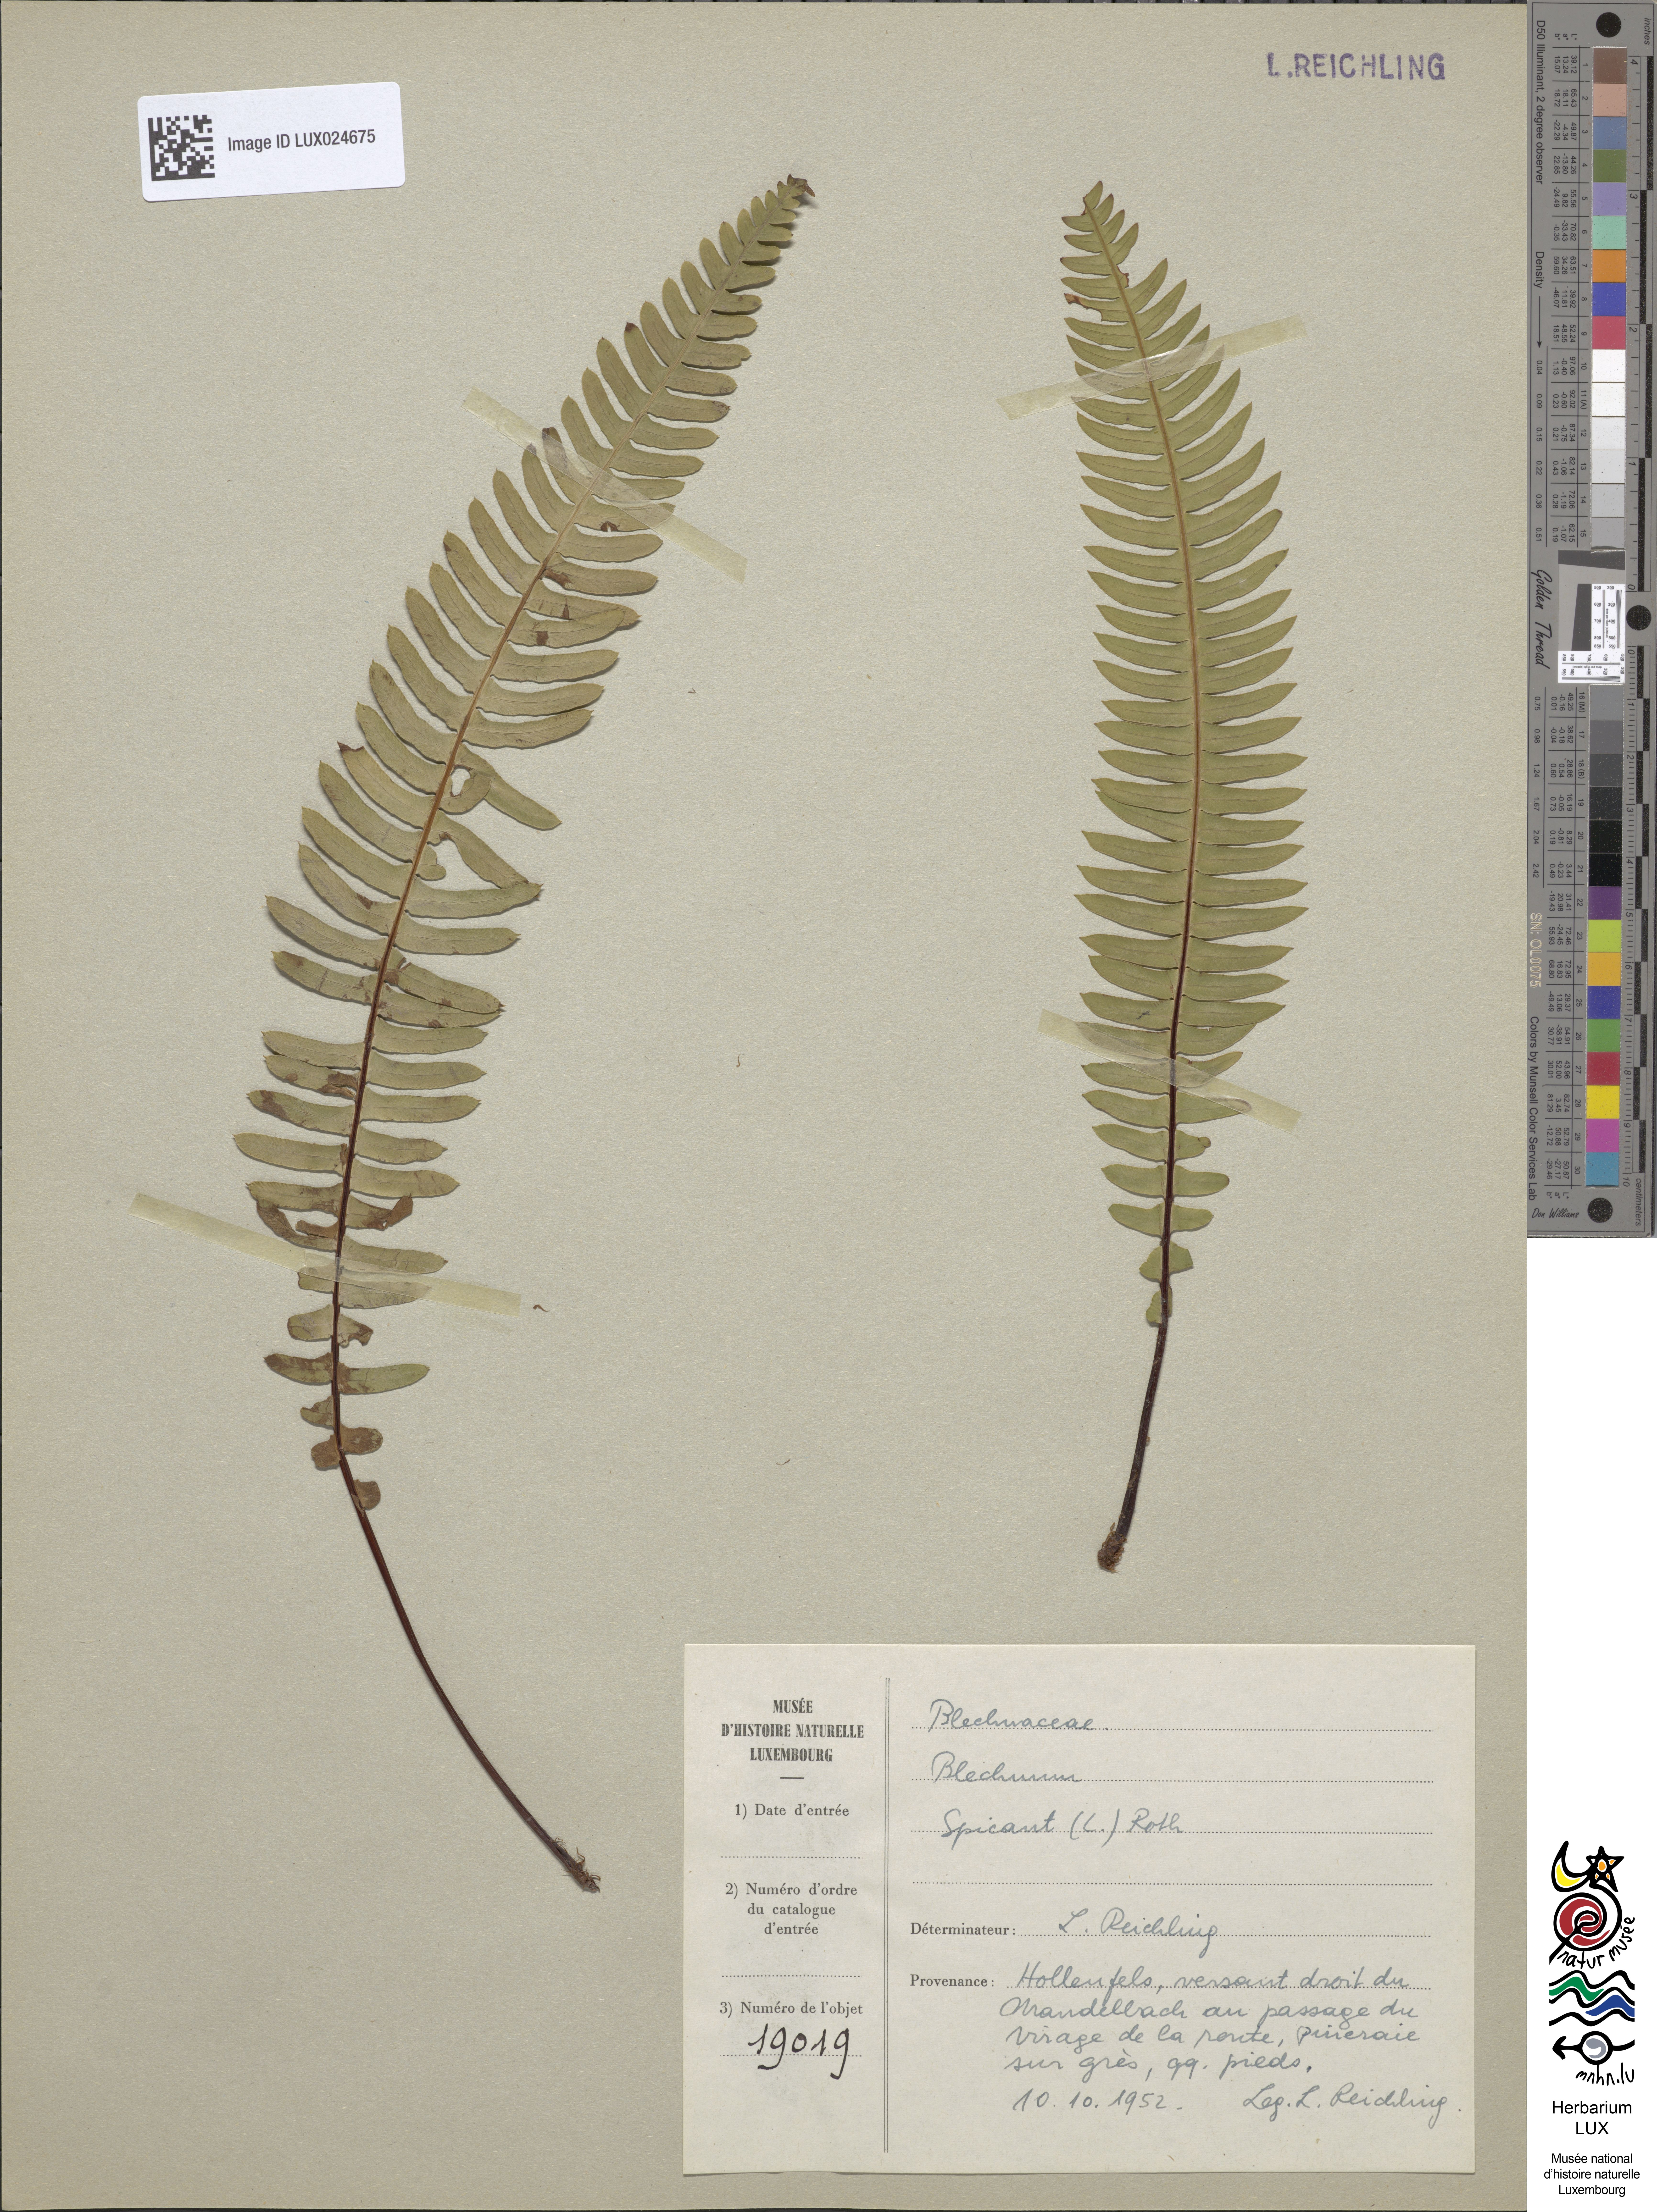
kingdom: Plantae
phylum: Tracheophyta
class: Polypodiopsida
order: Polypodiales
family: Blechnaceae
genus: Struthiopteris
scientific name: Struthiopteris spicant
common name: Deer fern
